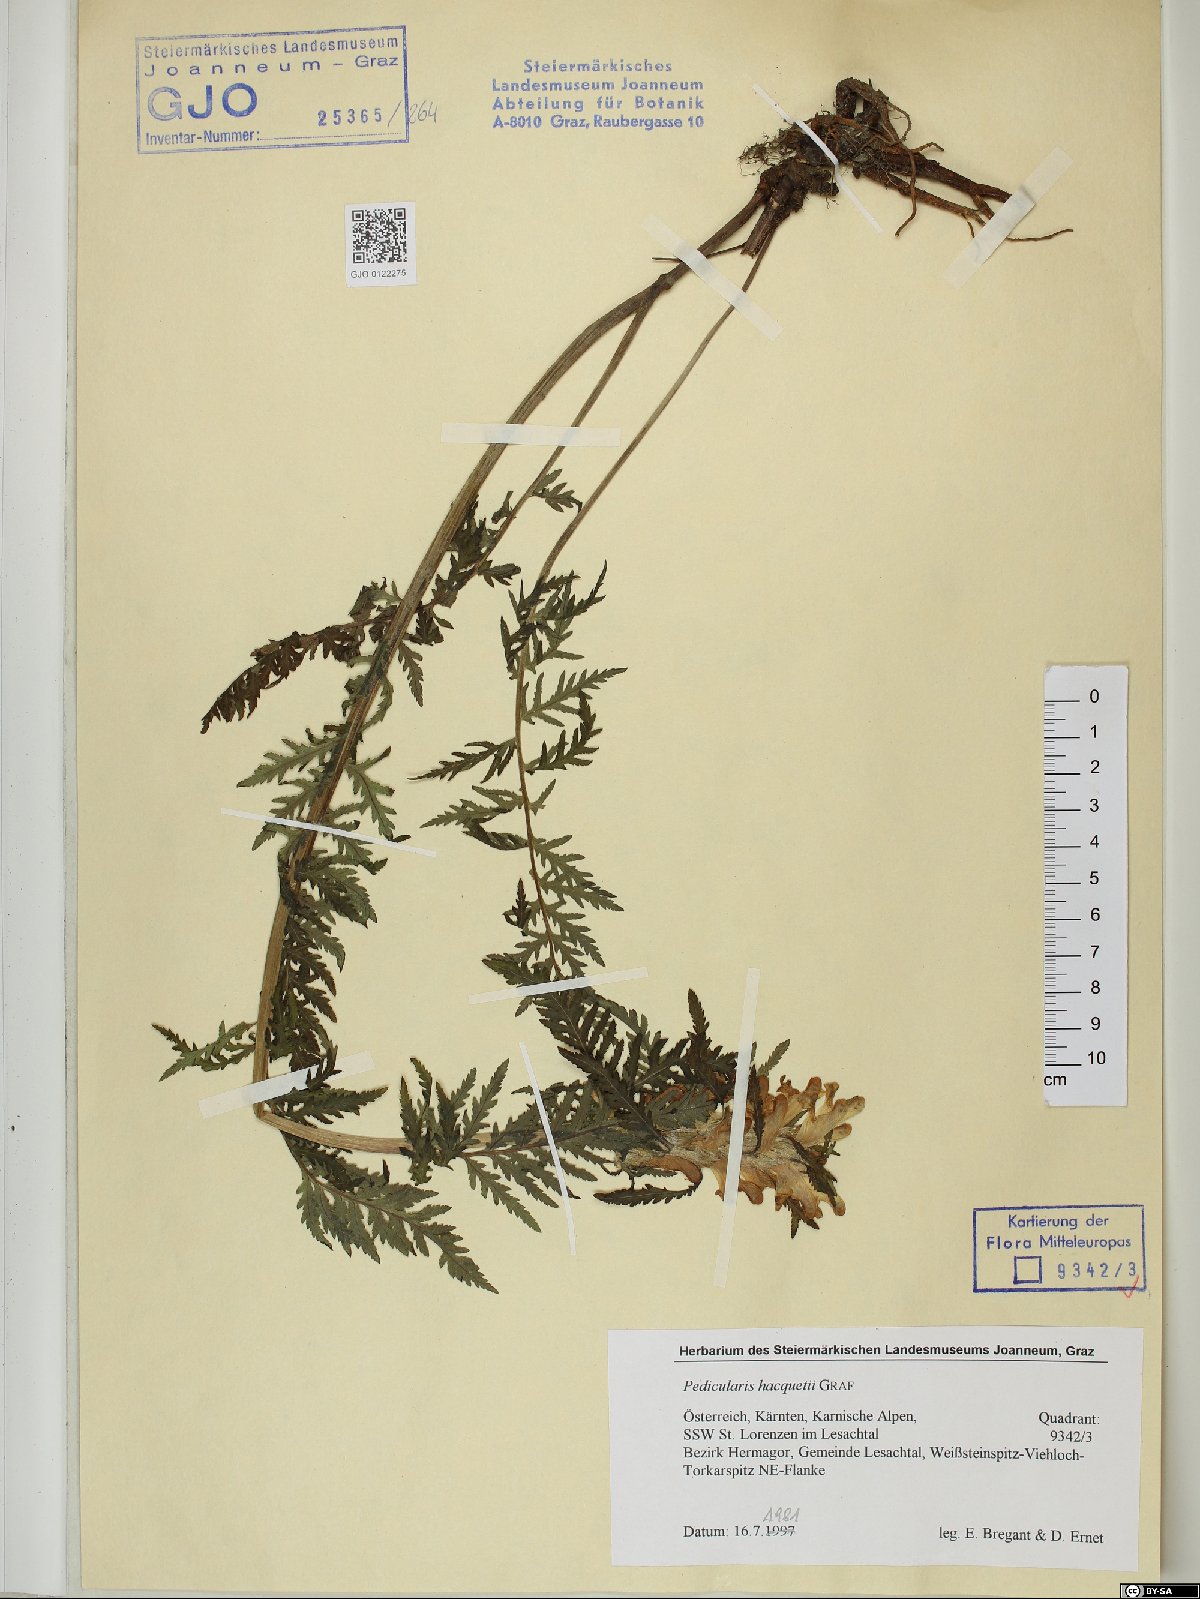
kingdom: Plantae
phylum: Tracheophyta
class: Magnoliopsida
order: Lamiales
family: Orobanchaceae
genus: Pedicularis
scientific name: Pedicularis hacquetii
